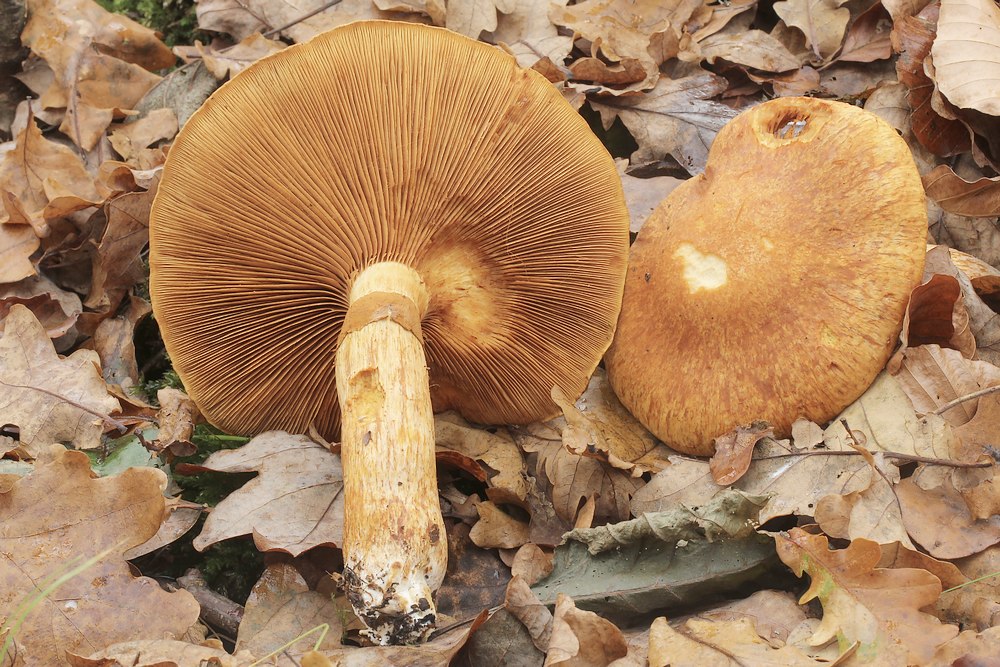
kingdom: Fungi
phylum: Basidiomycota
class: Agaricomycetes
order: Agaricales
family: Hymenogastraceae
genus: Gymnopilus
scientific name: Gymnopilus spectabilis
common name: fibret flammehat
